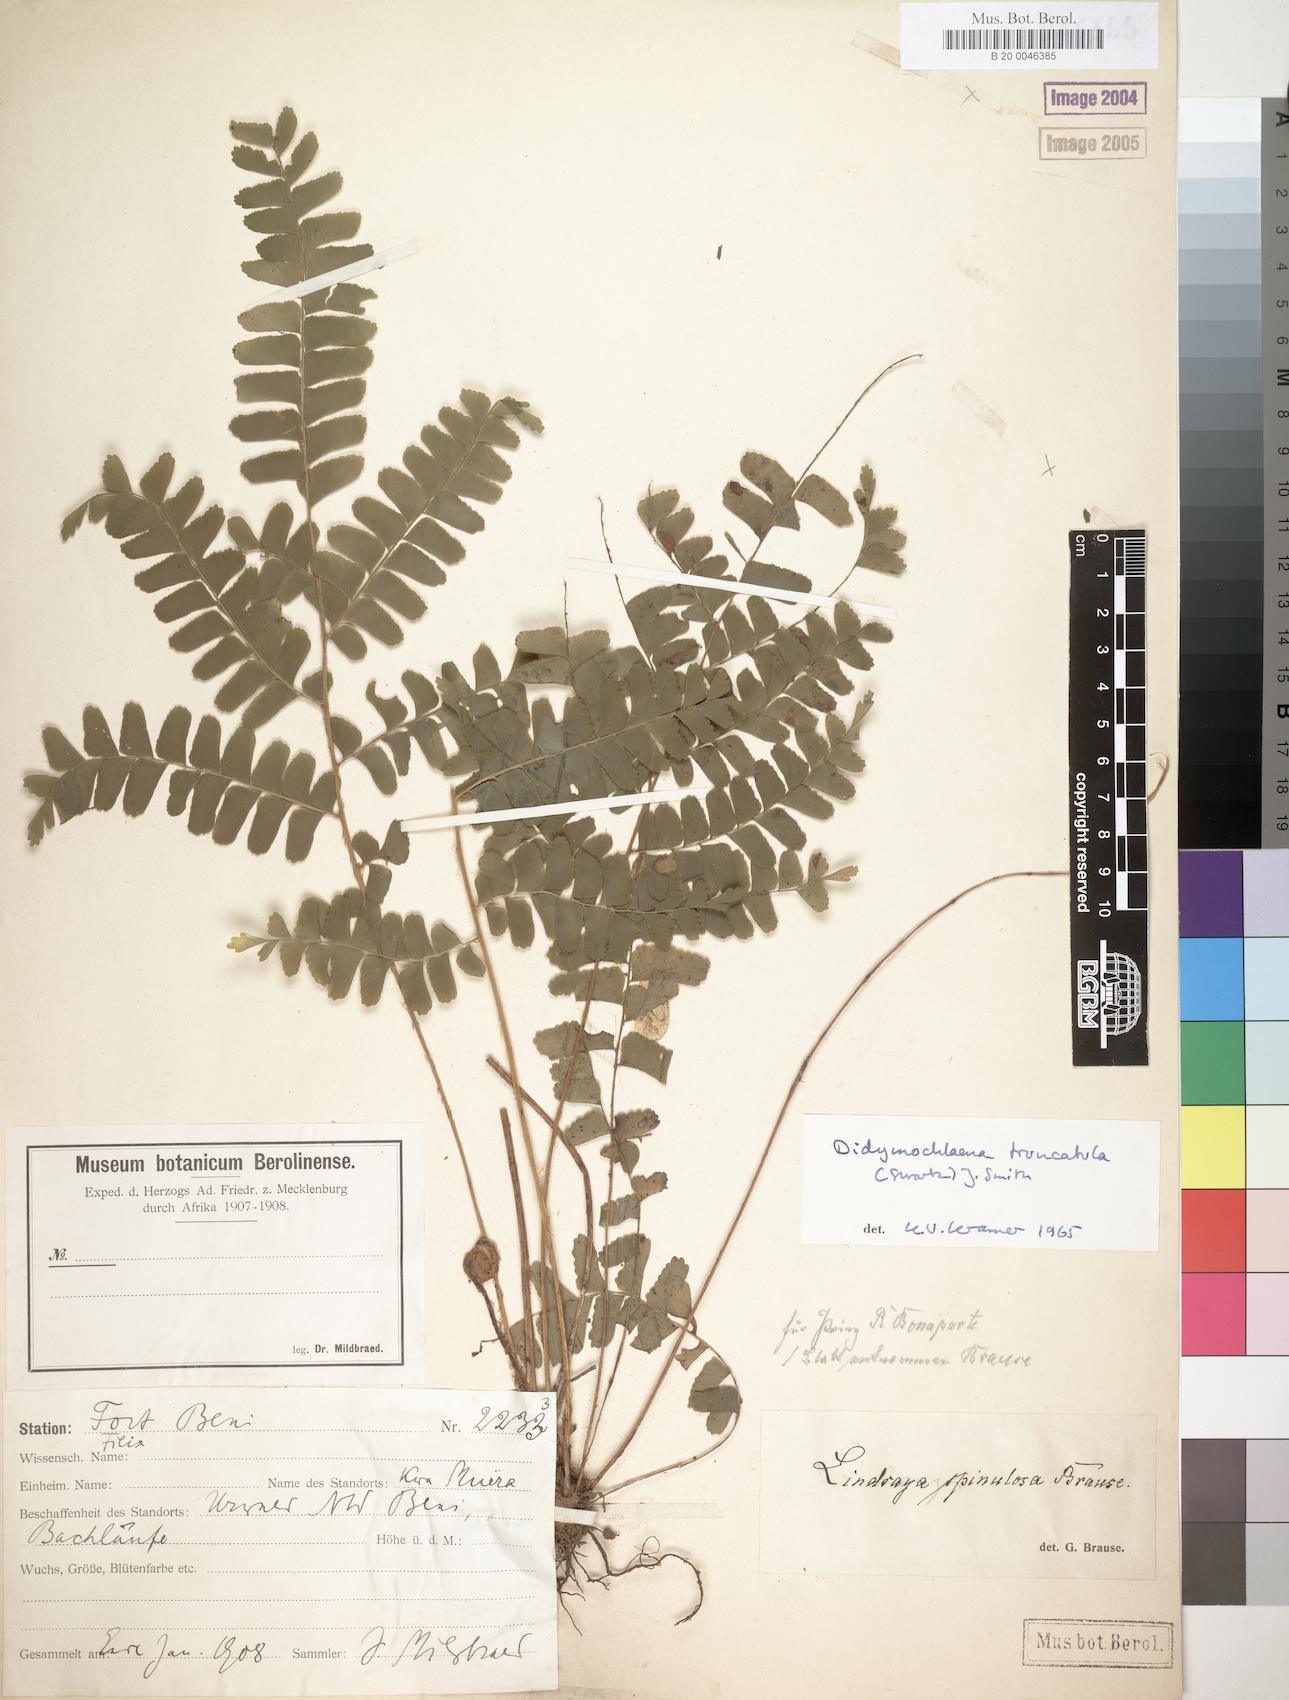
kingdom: Plantae
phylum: Tracheophyta
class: Polypodiopsida
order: Polypodiales
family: Didymochlaenaceae
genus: Didymochlaena
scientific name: Didymochlaena truncatula
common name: Mahogany fern
